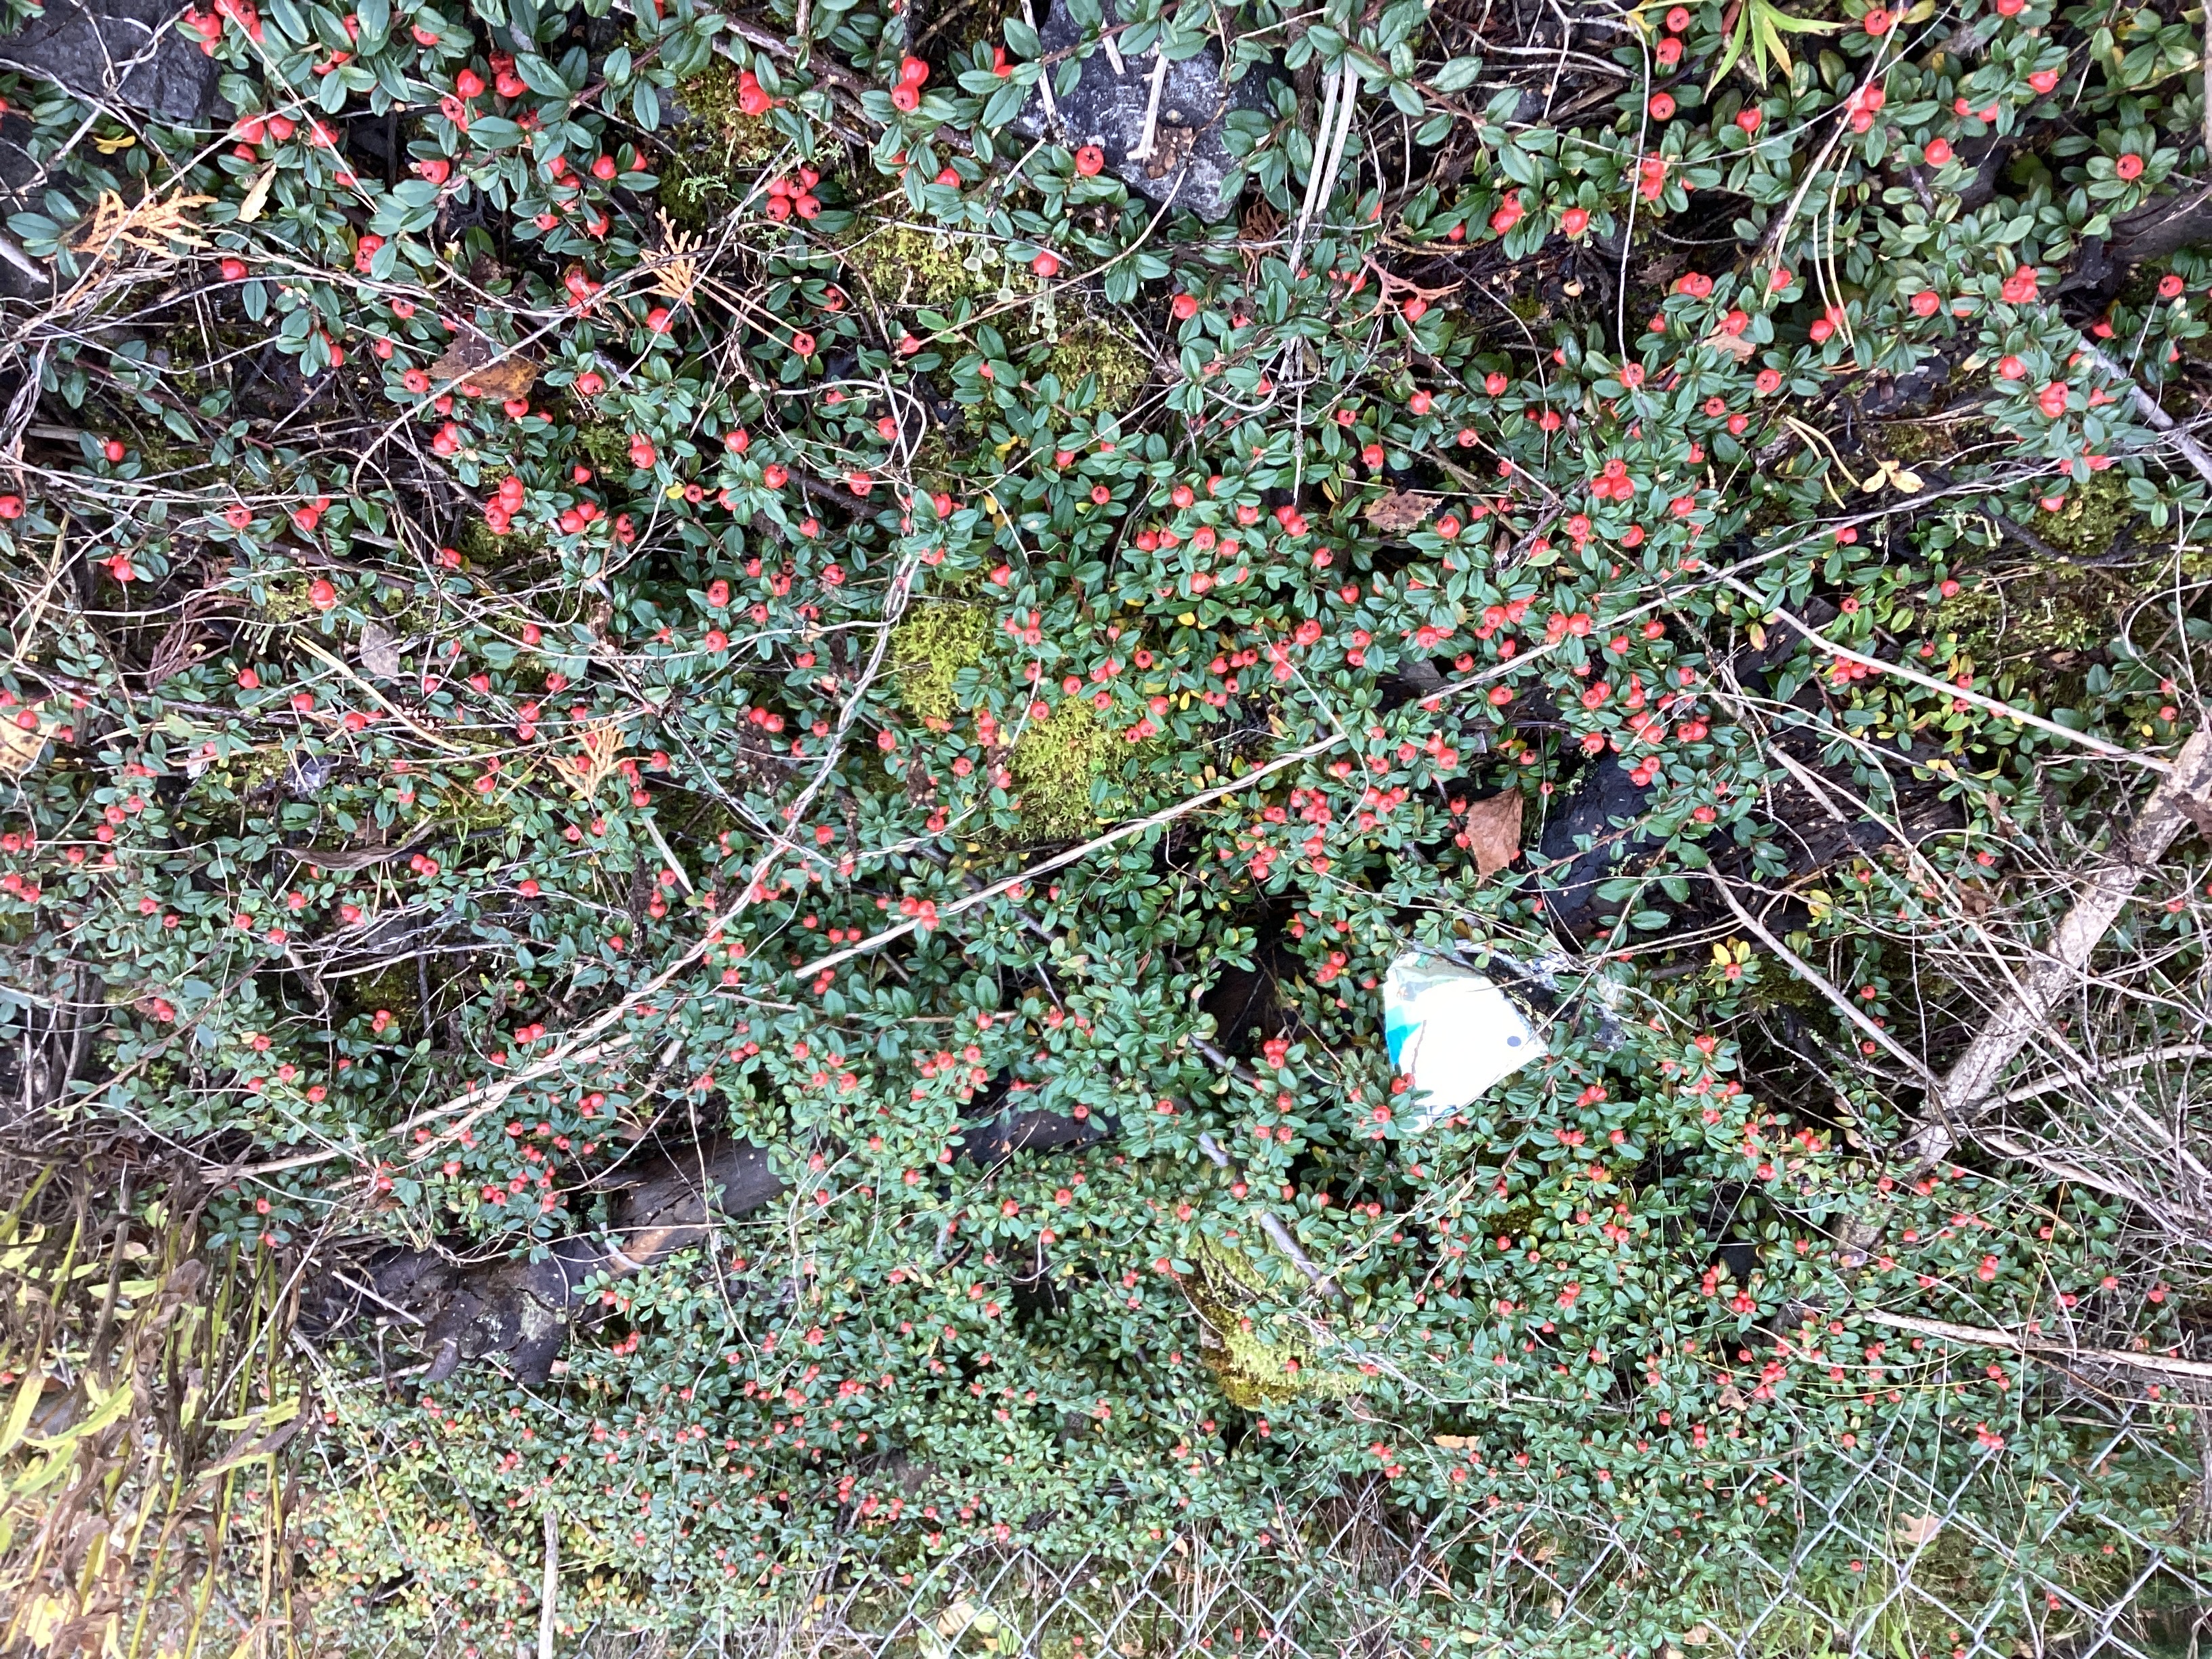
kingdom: Plantae
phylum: Tracheophyta
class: Magnoliopsida
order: Rosales
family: Rosaceae
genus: Cotoneaster
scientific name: Cotoneaster dammeri
